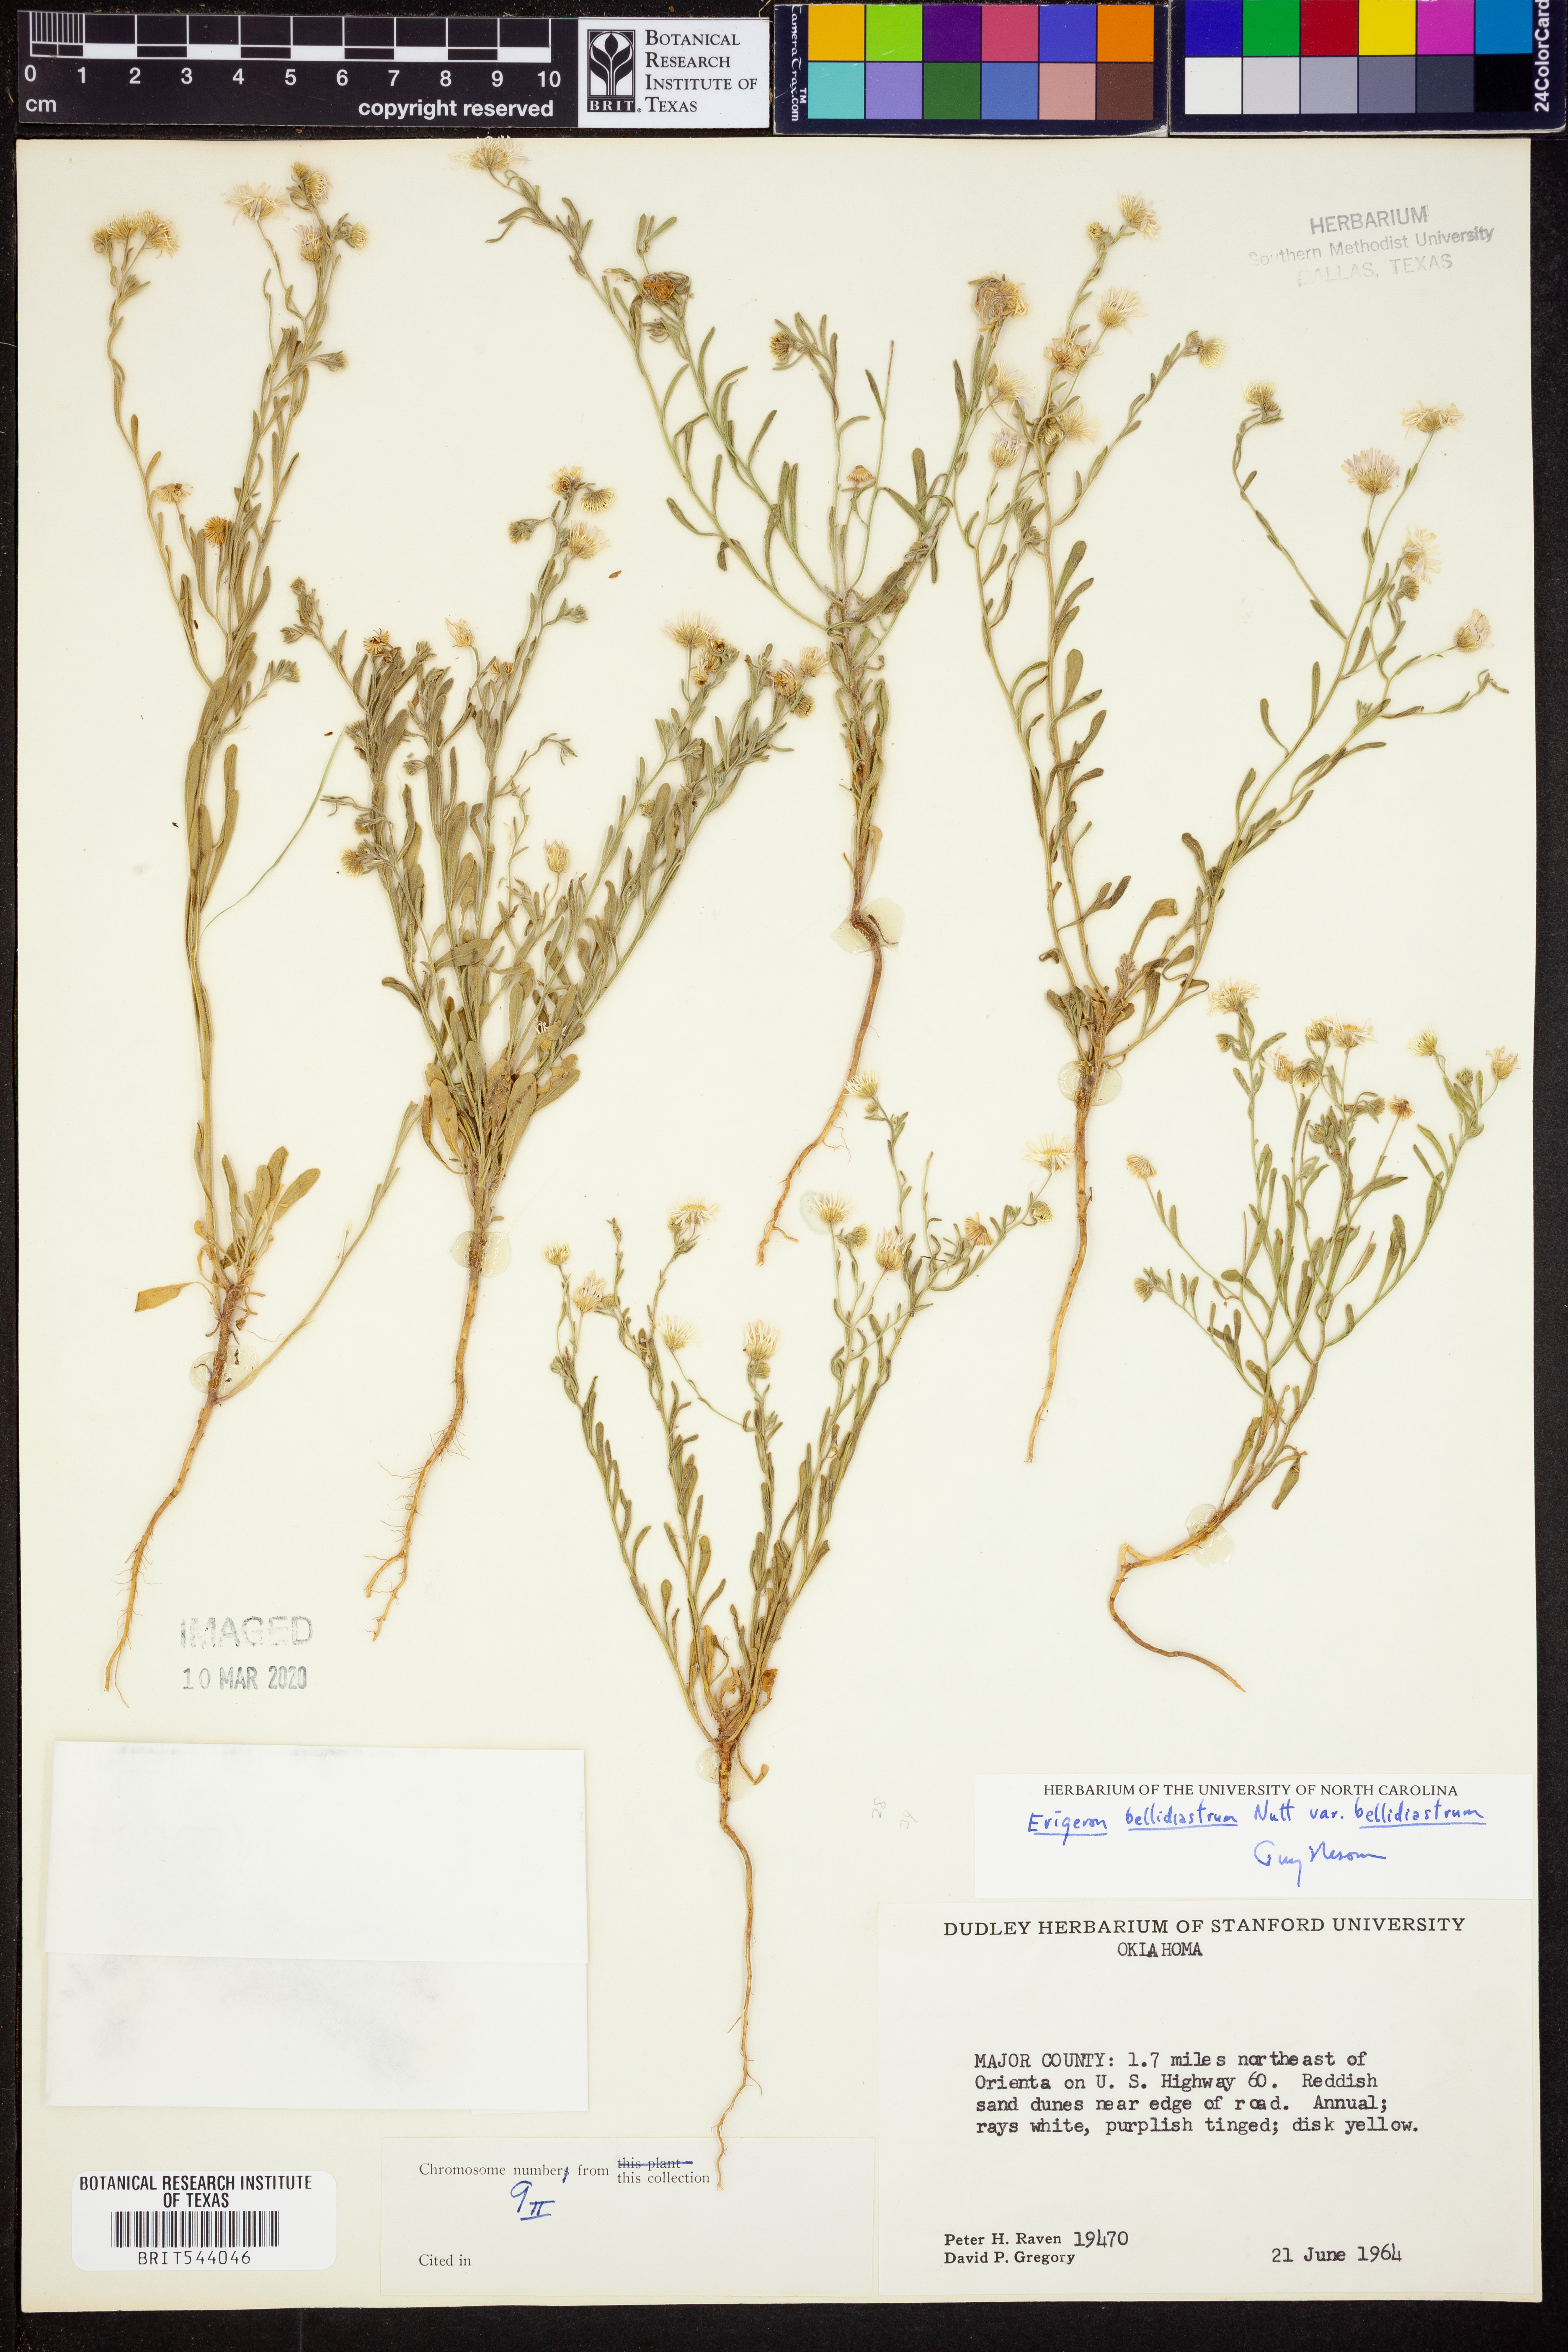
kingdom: Plantae
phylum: Tracheophyta
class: Magnoliopsida
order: Asterales
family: Asteraceae
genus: Erigeron
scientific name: Erigeron bellidiastrum
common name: Sand fleabane
